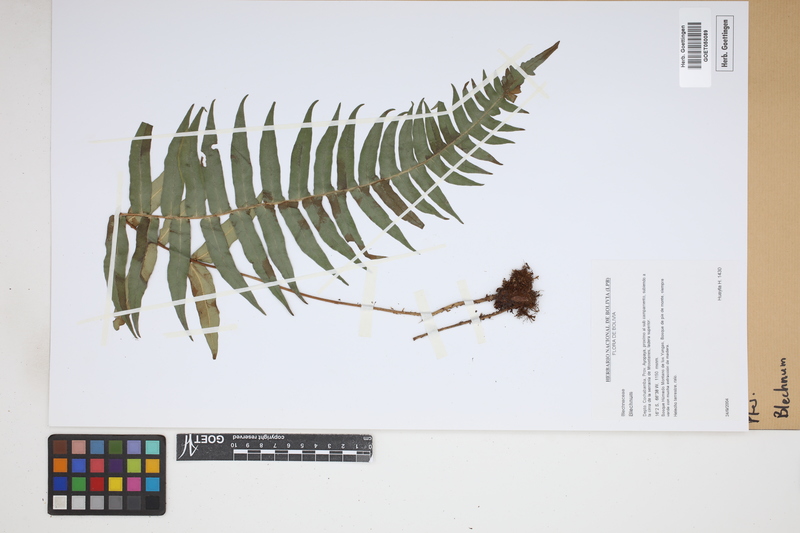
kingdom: Plantae
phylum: Tracheophyta
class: Polypodiopsida
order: Polypodiales
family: Blechnaceae
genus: Blechnum
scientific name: Blechnum
